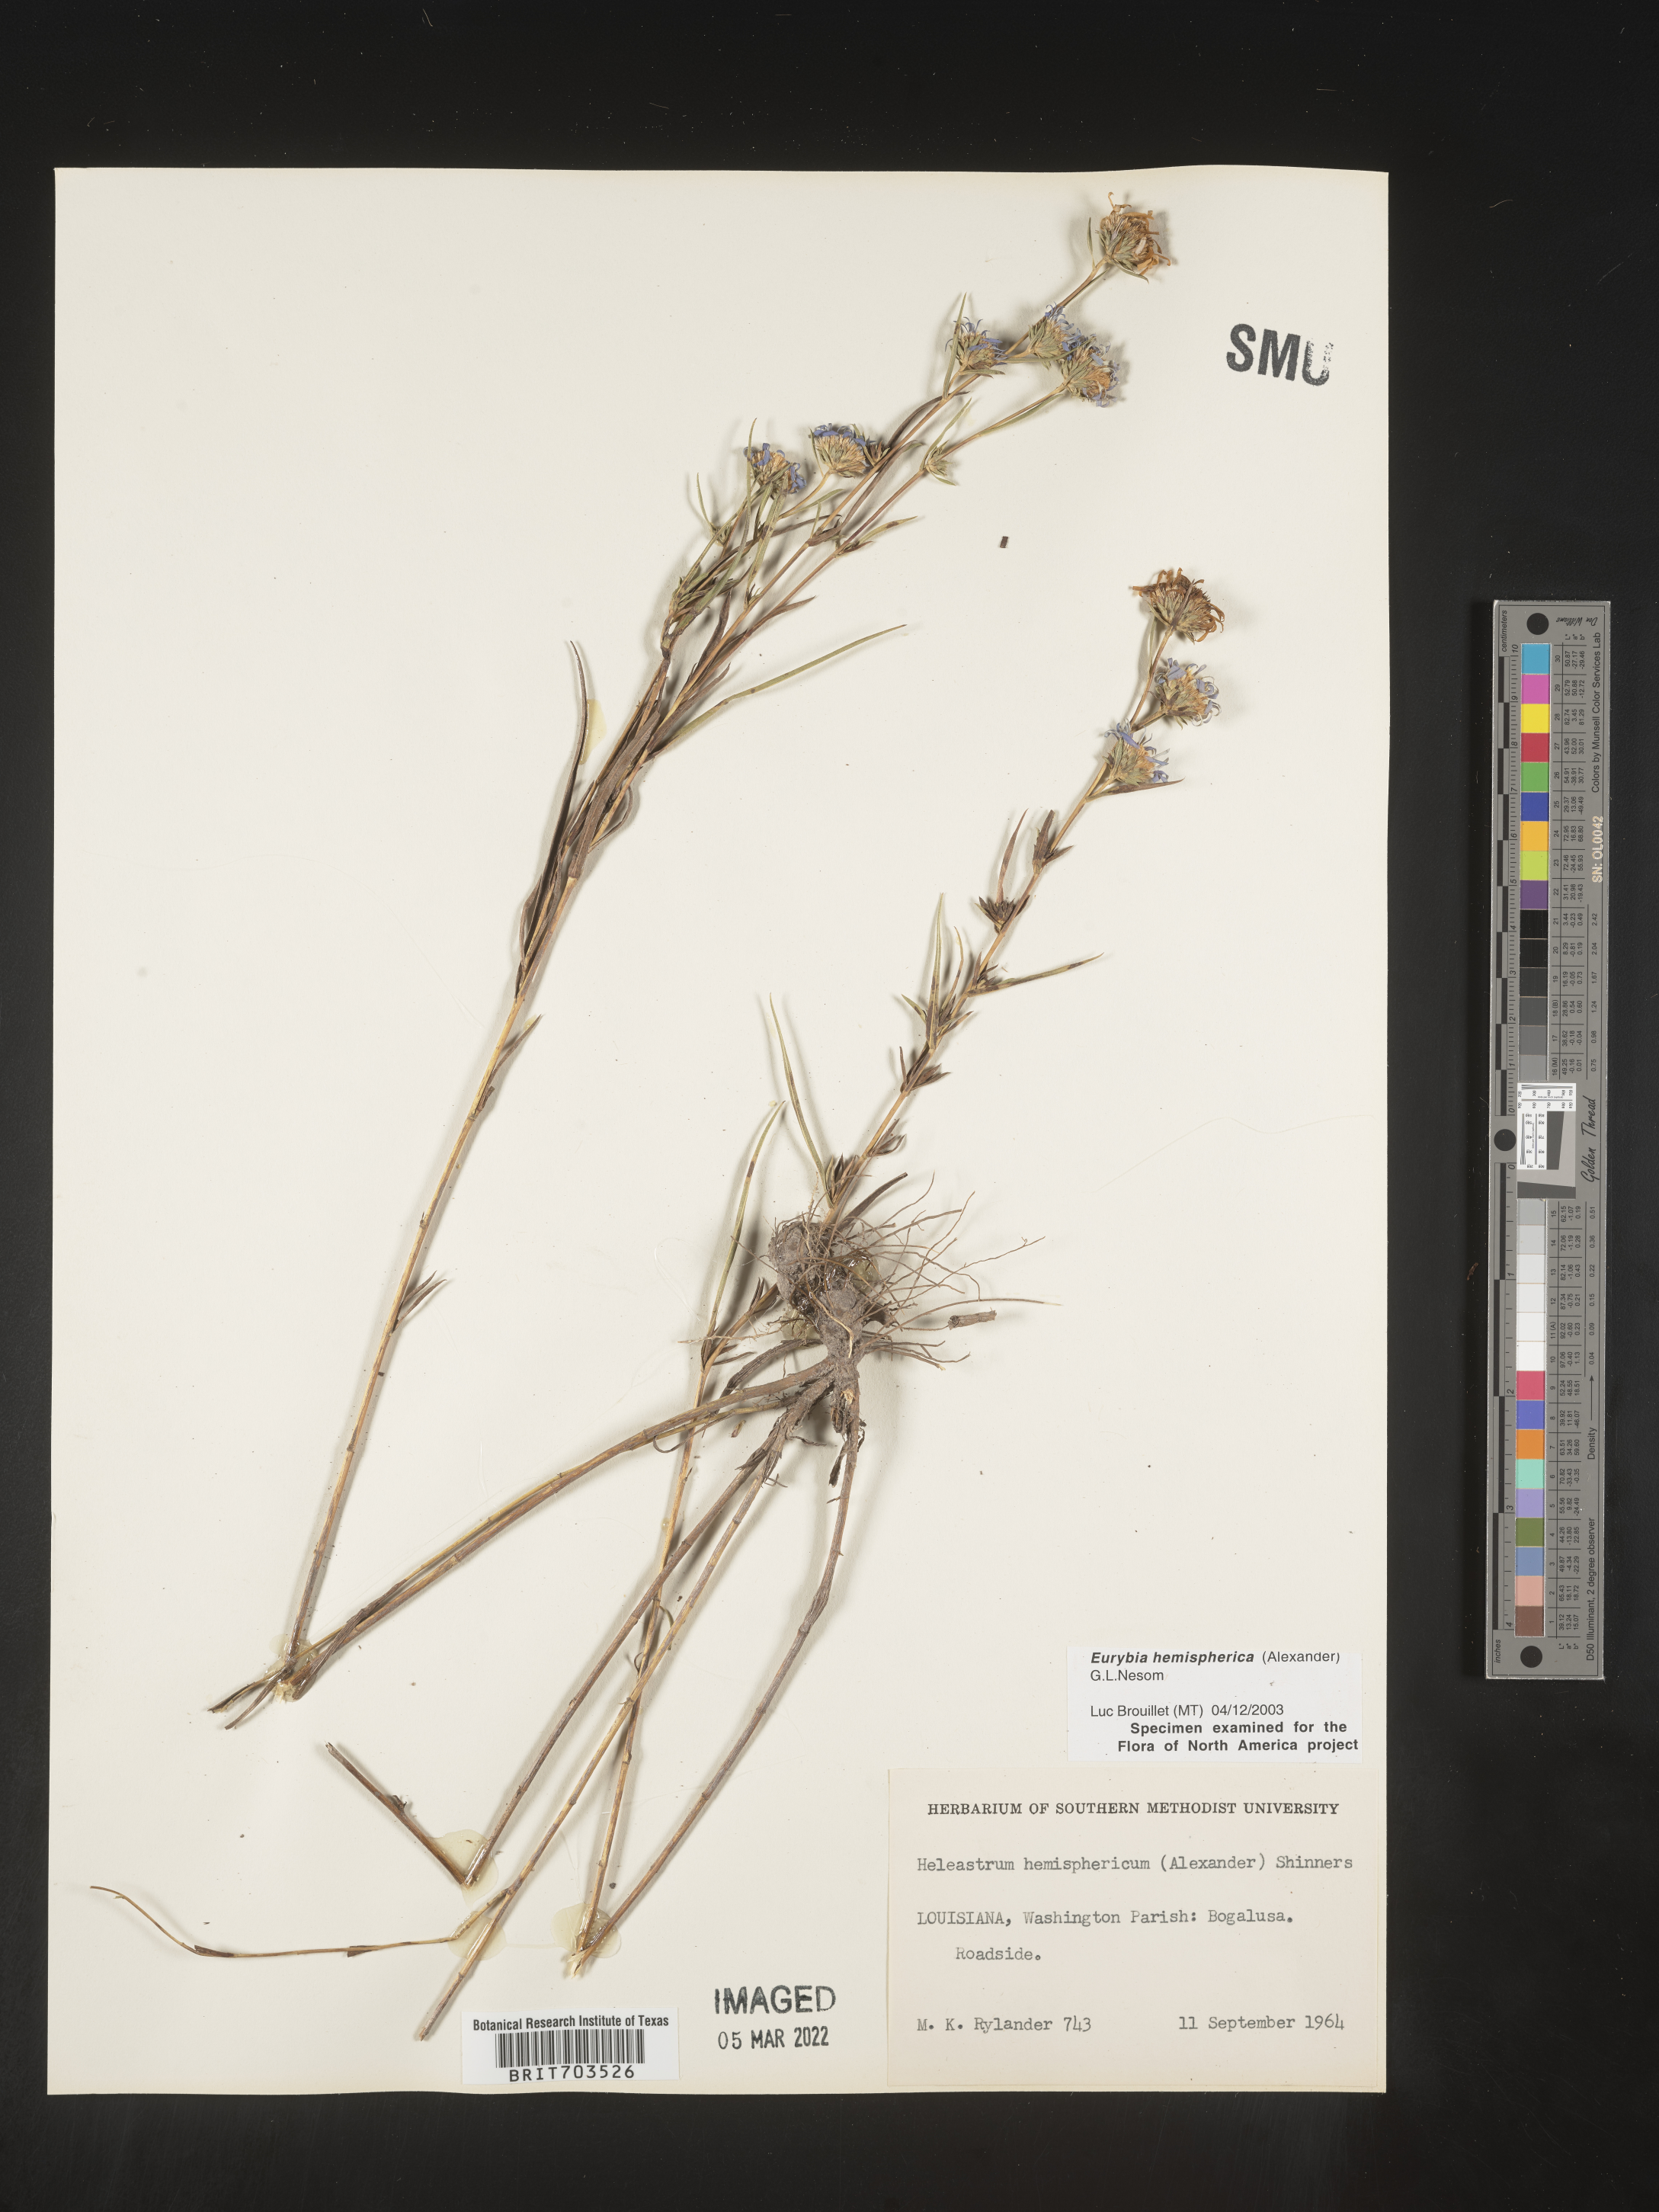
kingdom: Plantae
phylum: Tracheophyta
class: Magnoliopsida
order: Asterales
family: Asteraceae
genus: Eurybia
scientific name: Eurybia hemispherica
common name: Showy aster
